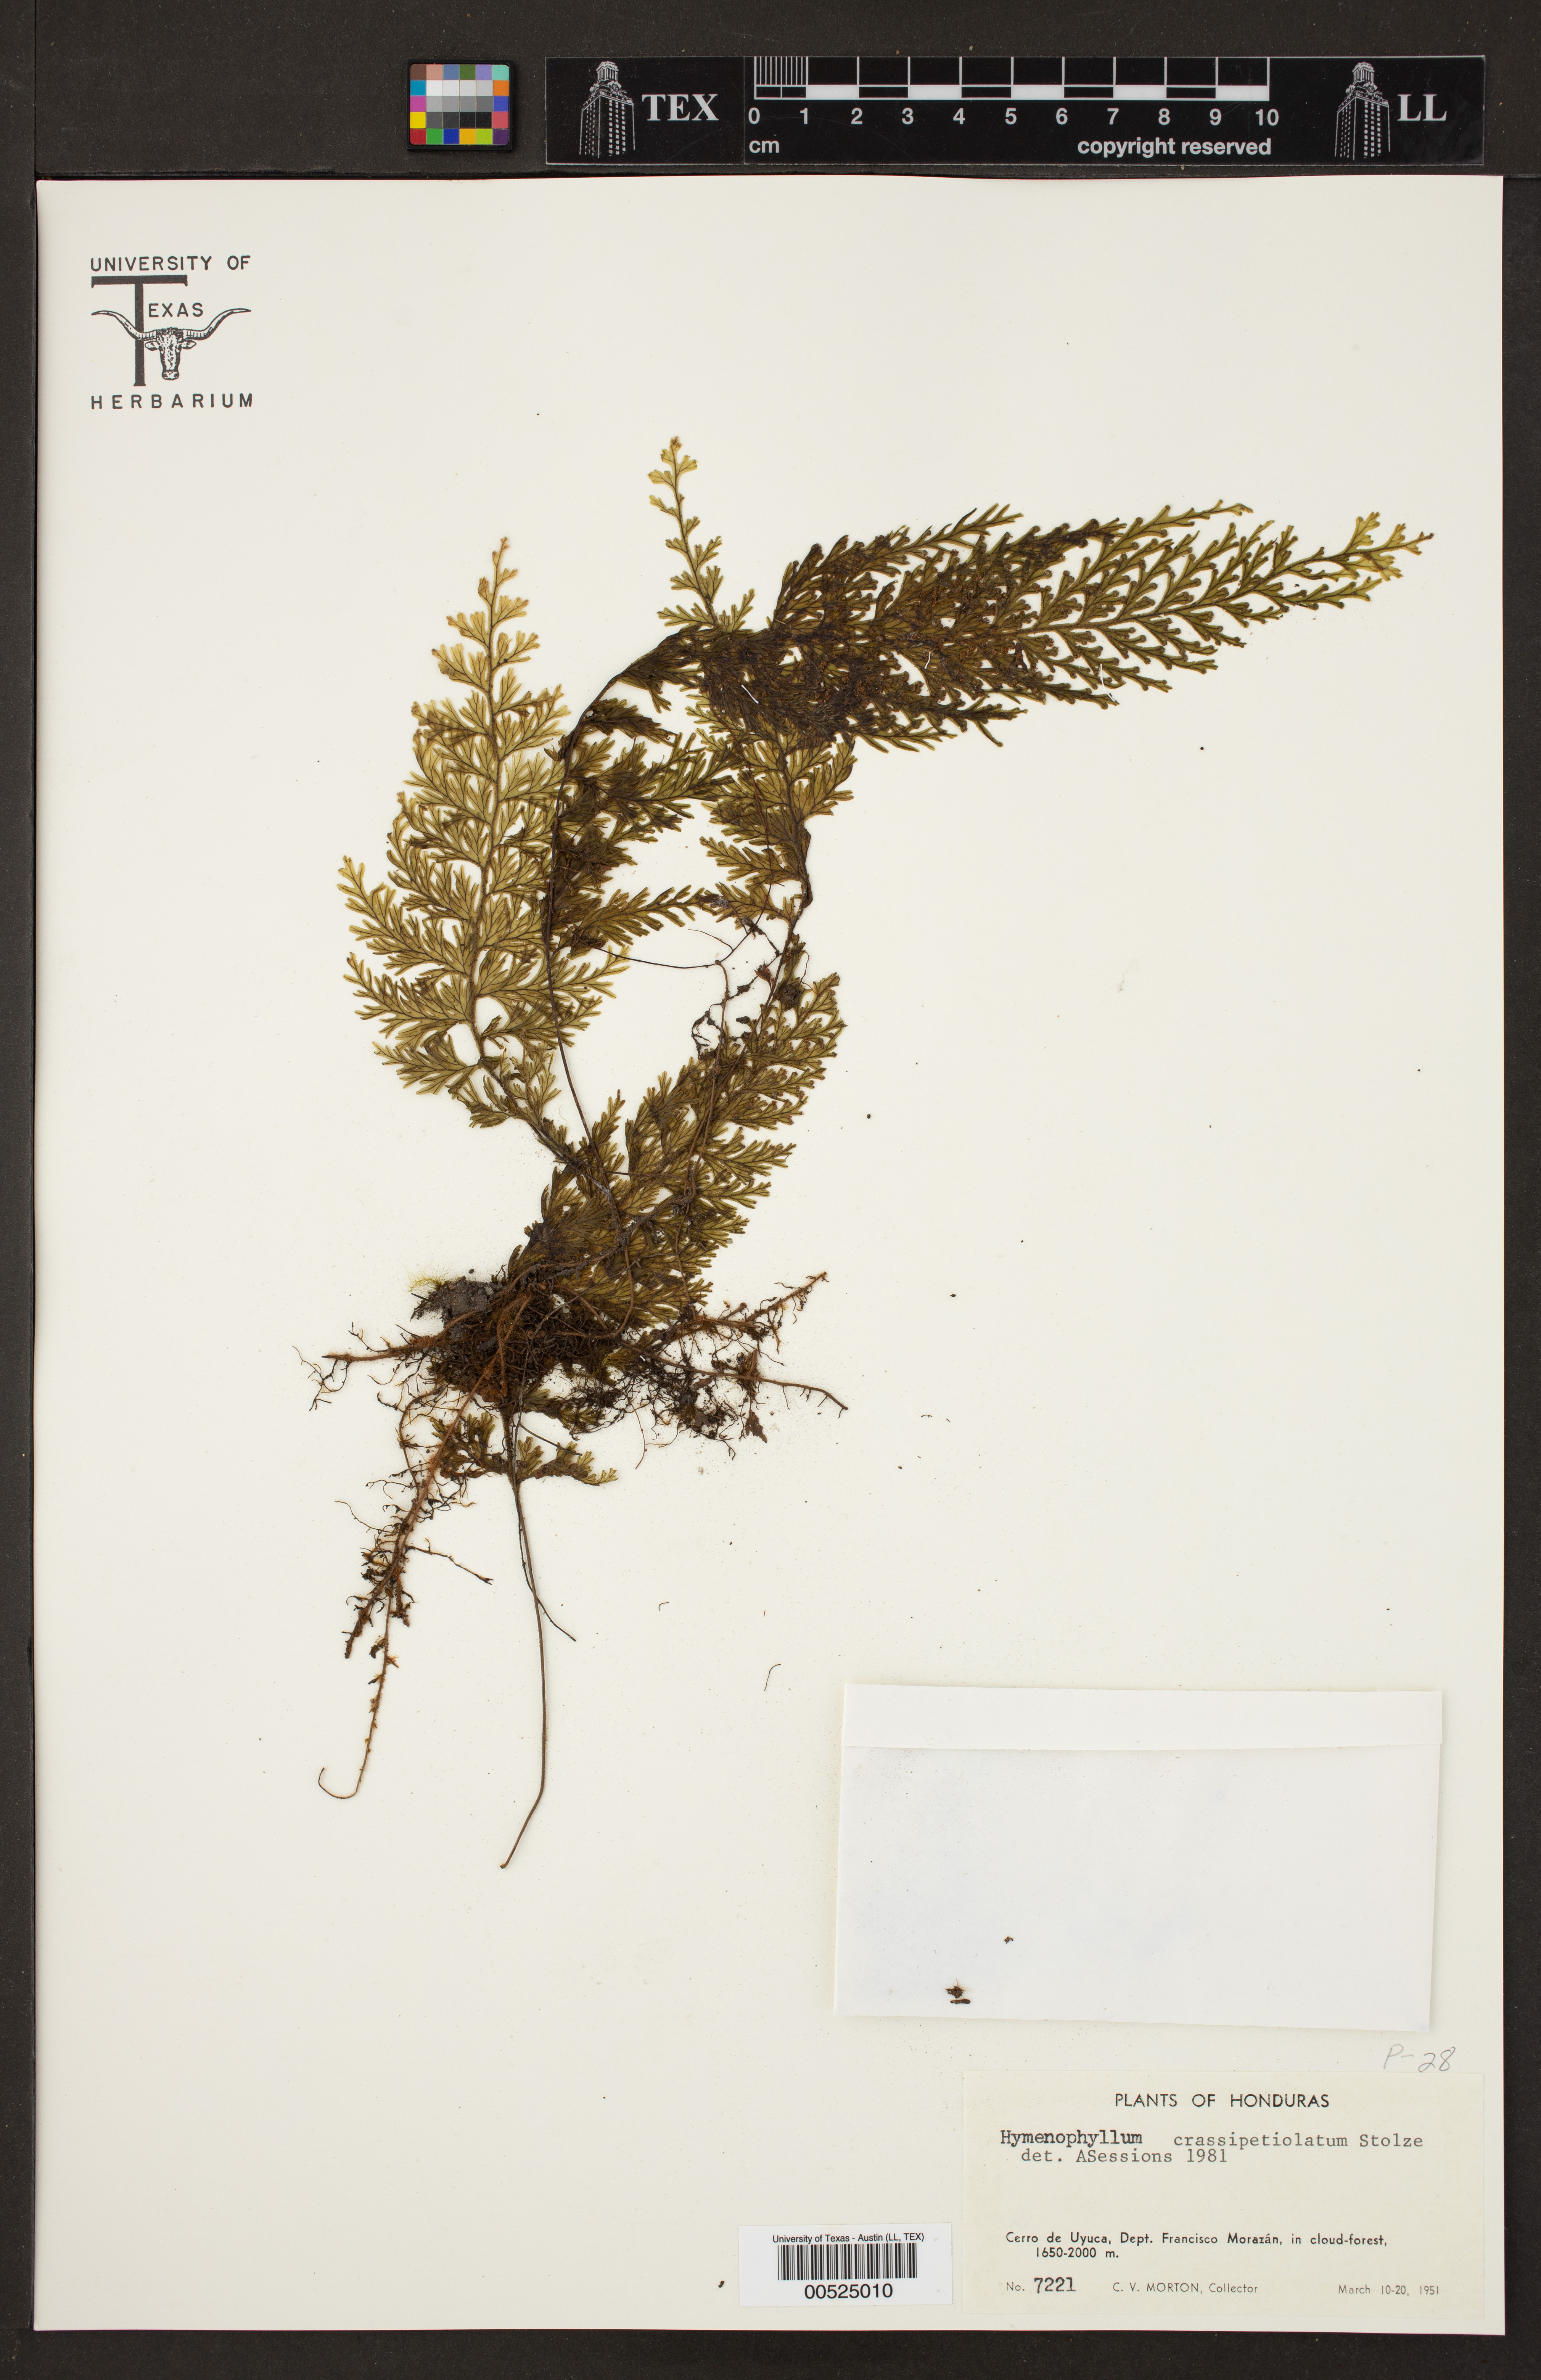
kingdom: Plantae
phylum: Tracheophyta
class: Polypodiopsida
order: Hymenophyllales
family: Hymenophyllaceae
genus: Hymenophyllum
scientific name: Hymenophyllum crassipetiolatum
